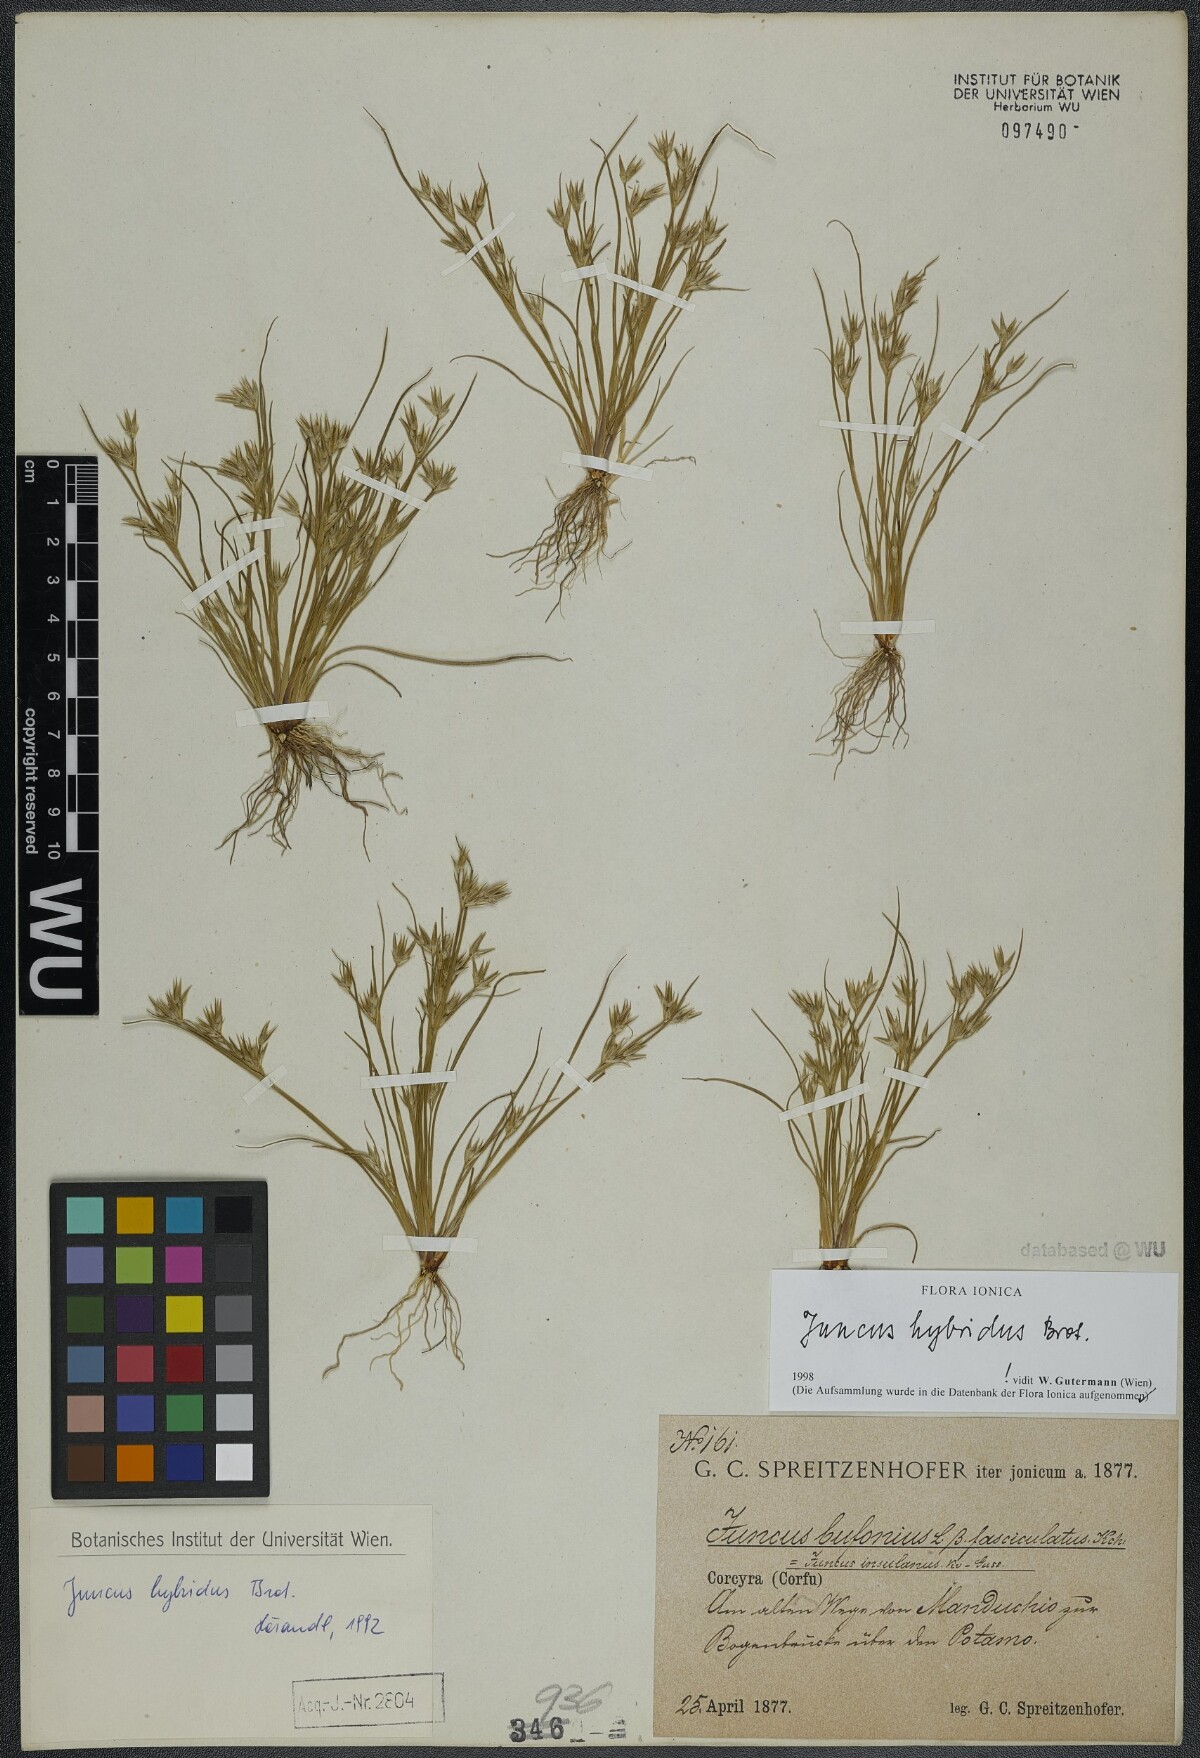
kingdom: Plantae
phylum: Tracheophyta
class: Liliopsida
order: Poales
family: Juncaceae
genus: Juncus
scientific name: Juncus hybridus
